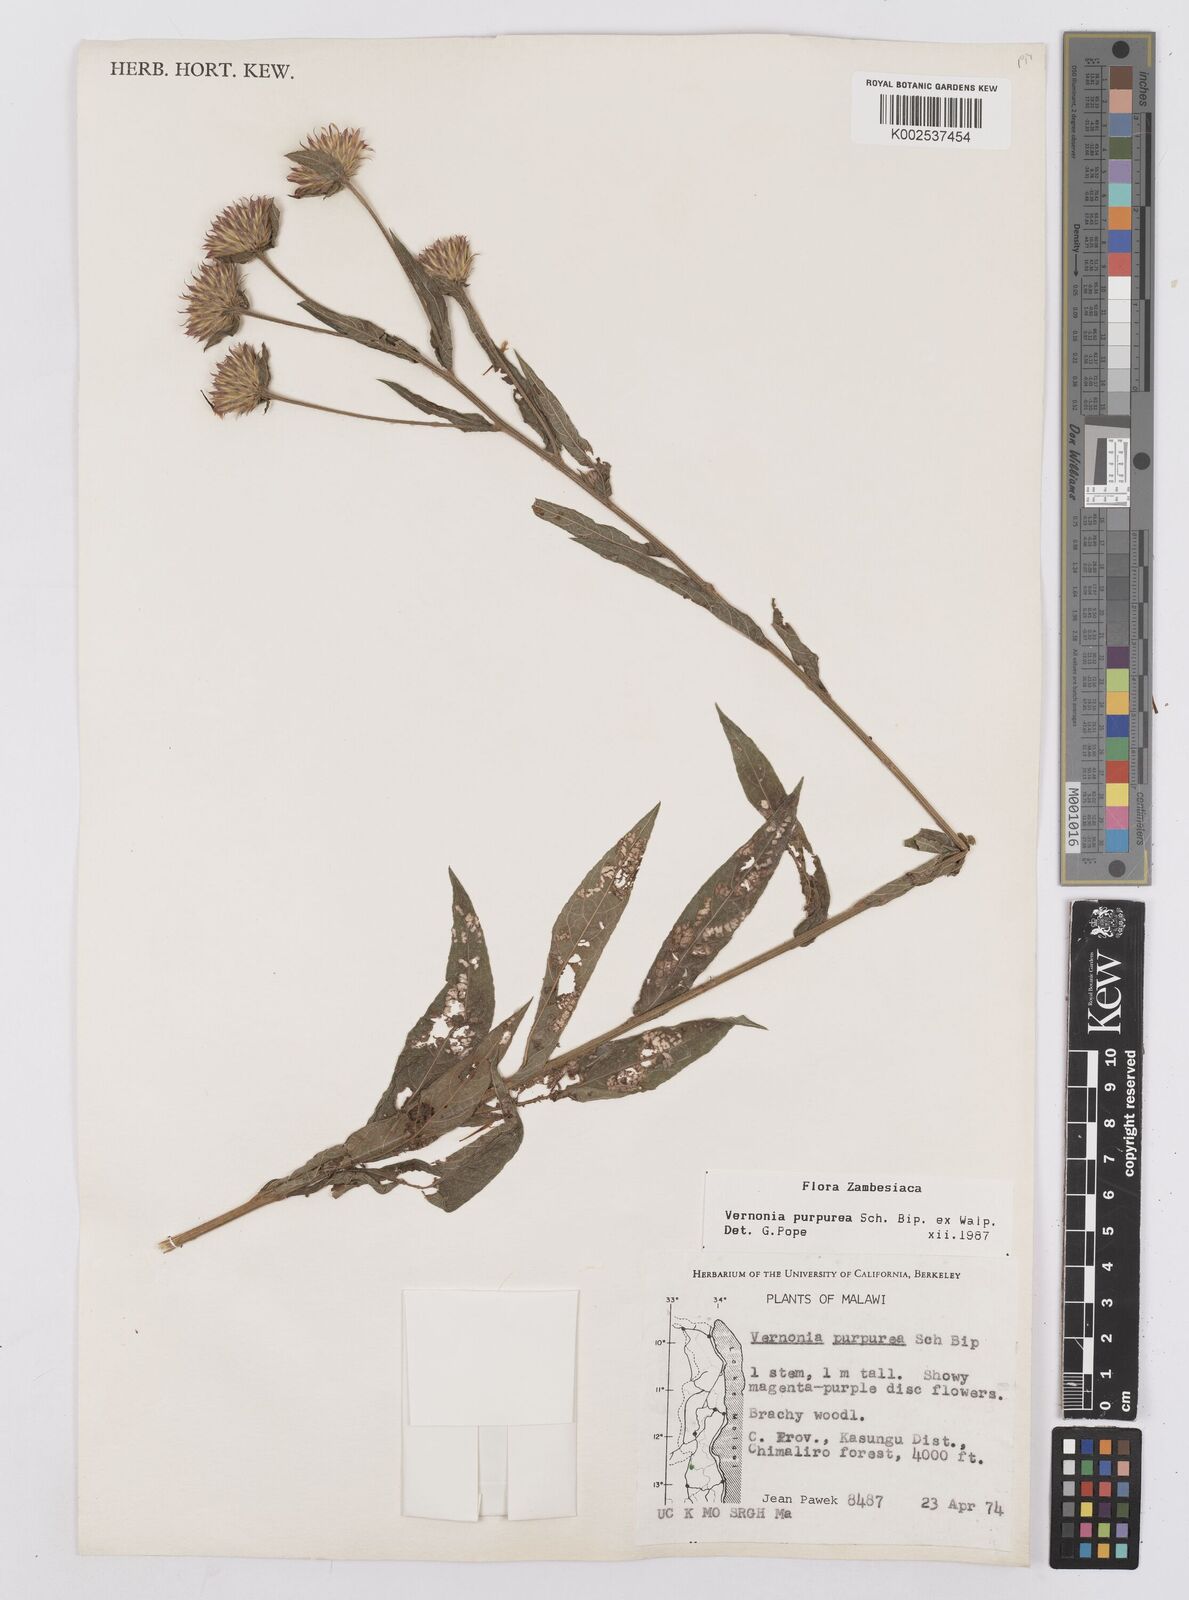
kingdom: Plantae
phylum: Tracheophyta
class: Magnoliopsida
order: Asterales
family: Asteraceae
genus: Nothovernonia
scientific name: Nothovernonia purpurea
